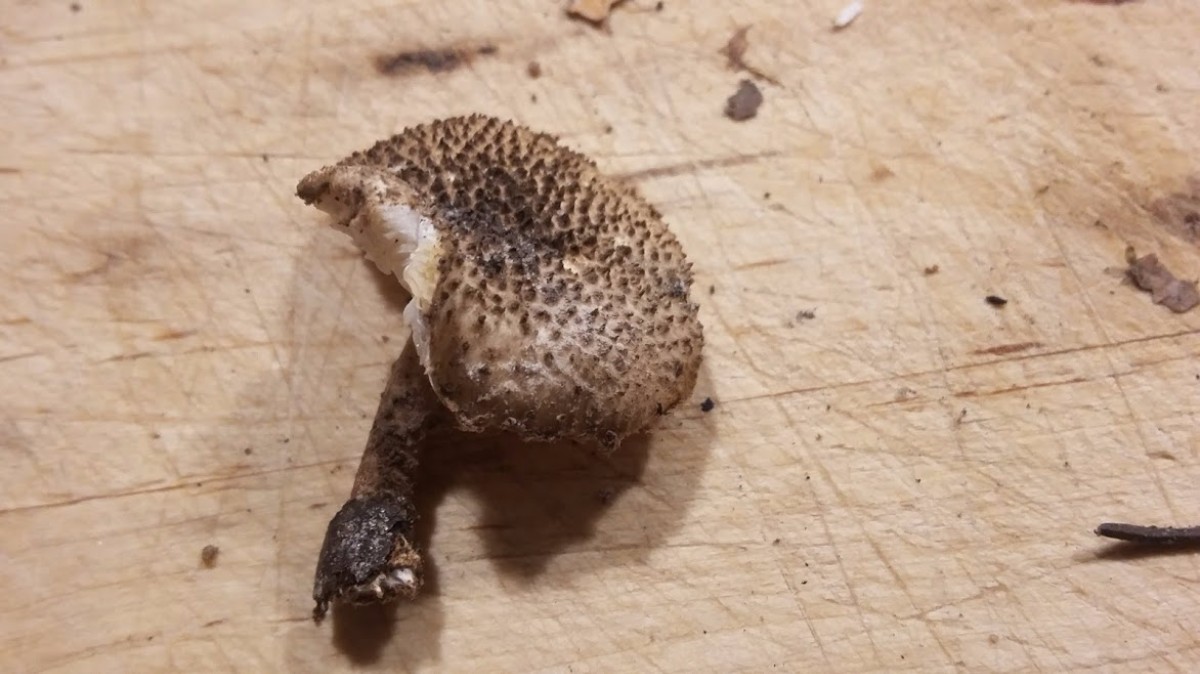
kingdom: Fungi
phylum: Basidiomycota
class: Agaricomycetes
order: Agaricales
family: Agaricaceae
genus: Echinoderma
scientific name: Echinoderma jacobi
